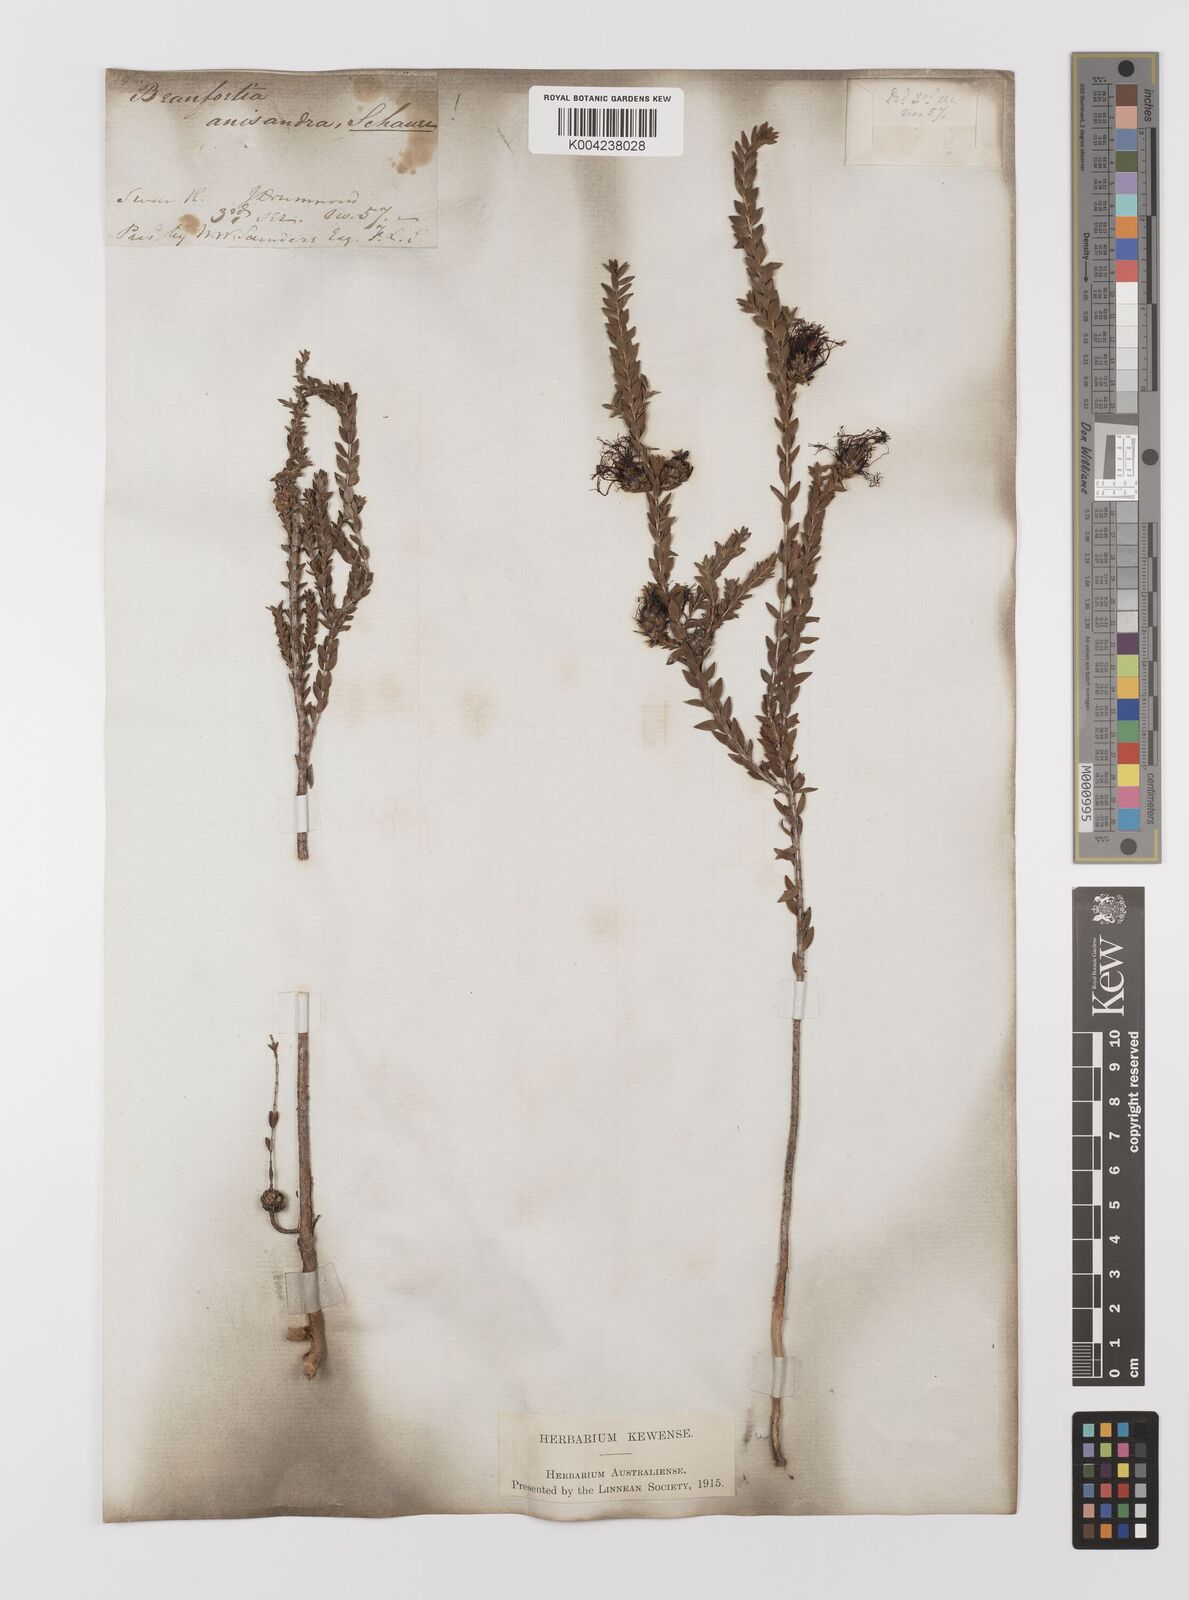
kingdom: Plantae
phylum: Tracheophyta
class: Magnoliopsida
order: Myrtales
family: Myrtaceae
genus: Melaleuca
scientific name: Melaleuca anisandra
